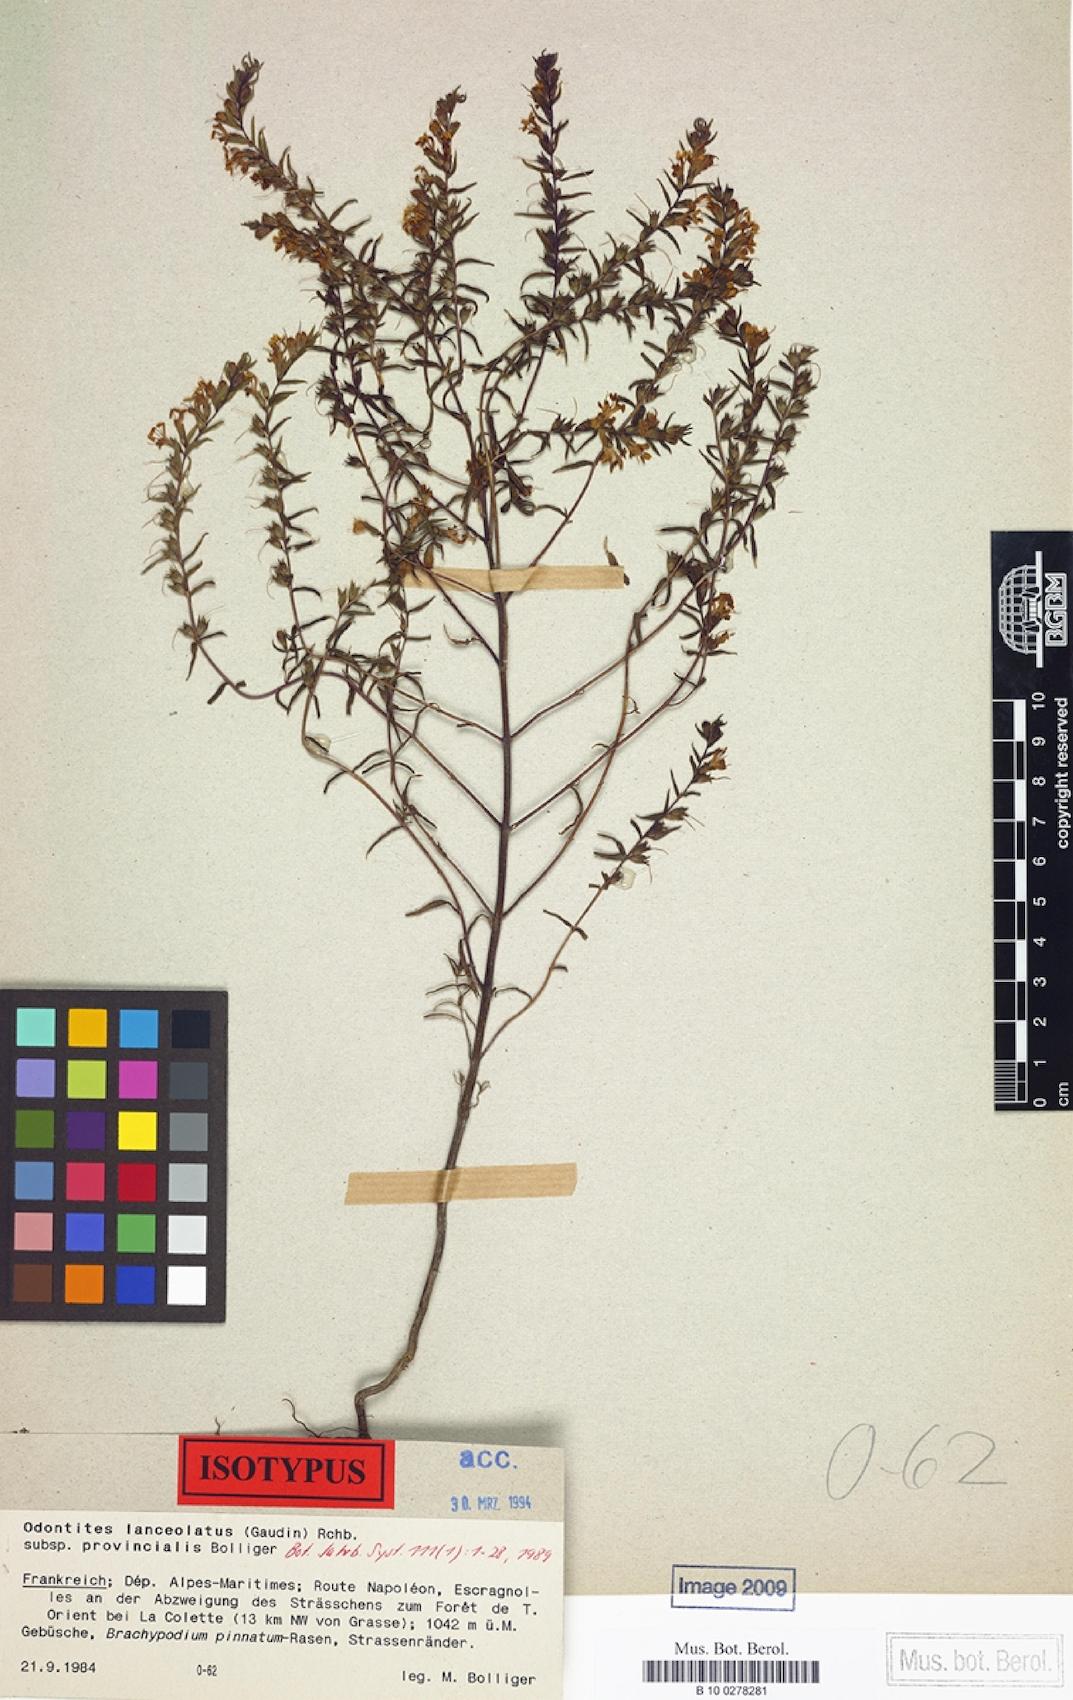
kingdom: Plantae
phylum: Tracheophyta
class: Magnoliopsida
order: Lamiales
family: Orobanchaceae
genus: Odontites
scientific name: Odontites lanceolatus
